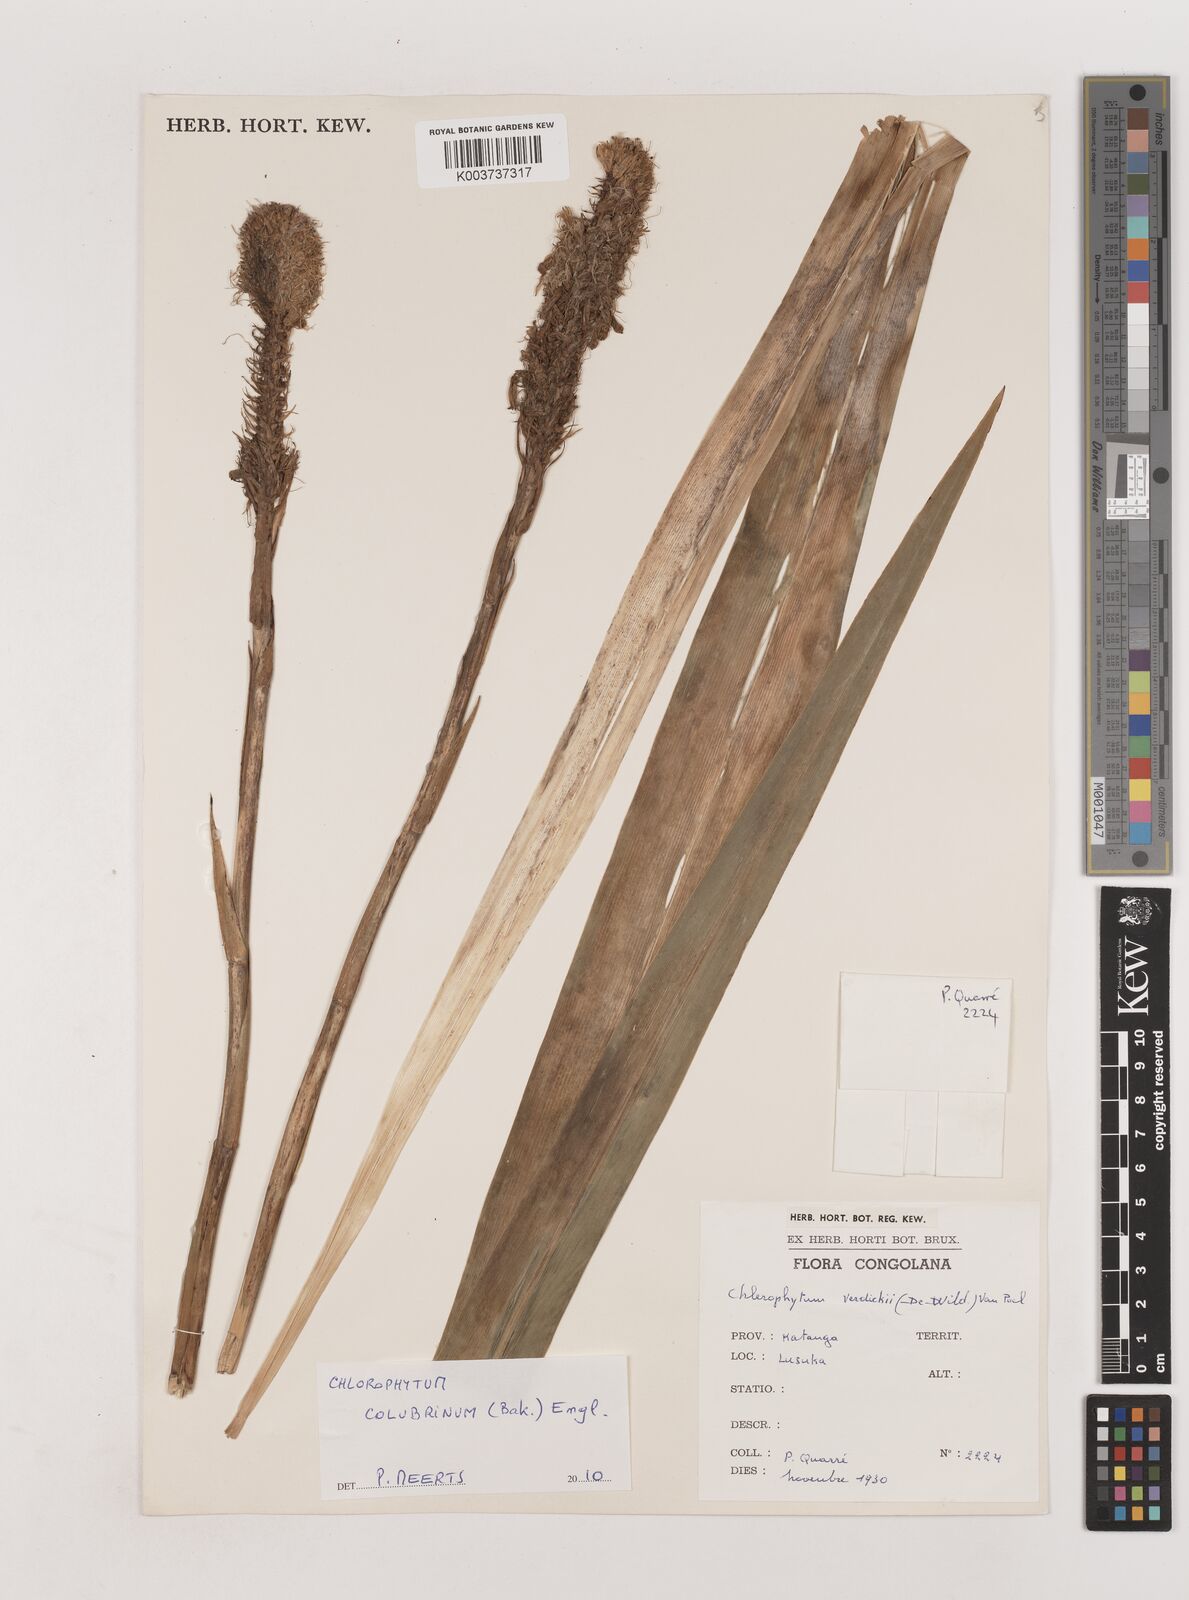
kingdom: Plantae
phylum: Tracheophyta
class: Liliopsida
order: Asparagales
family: Asparagaceae
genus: Chlorophytum
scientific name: Chlorophytum colubrinum
